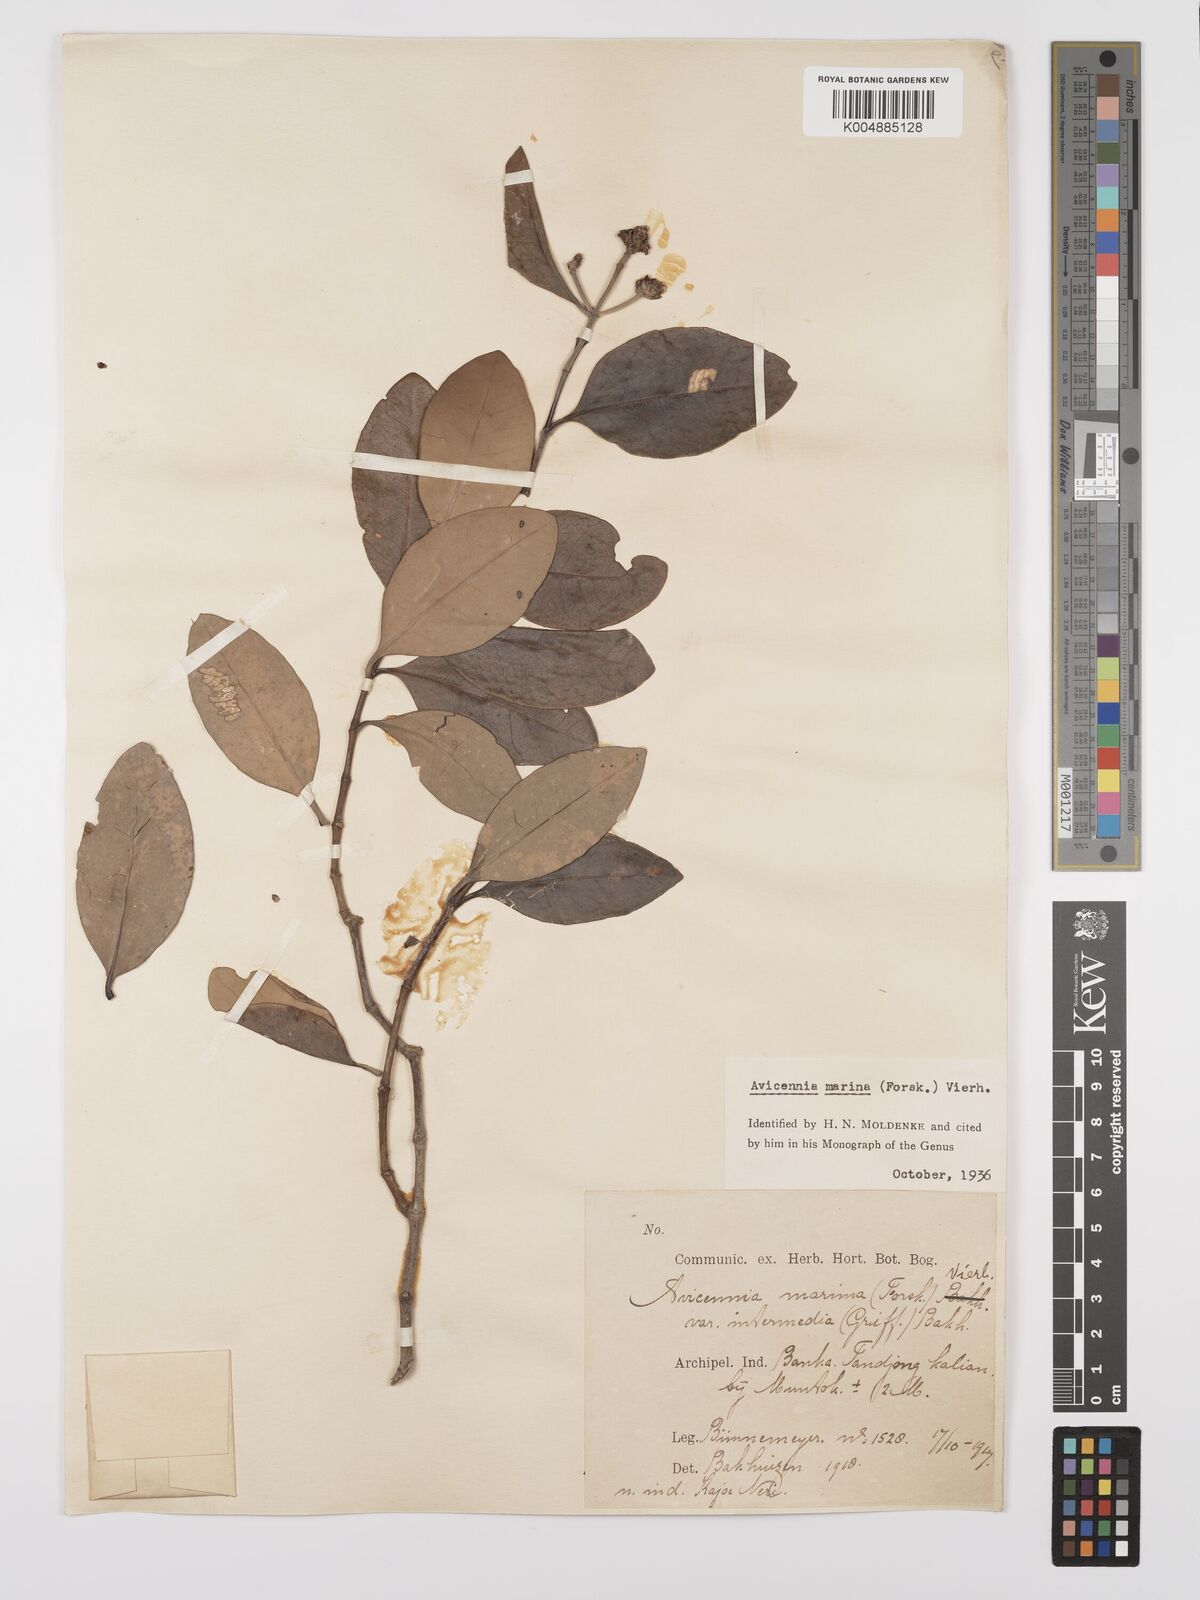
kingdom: Plantae
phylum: Tracheophyta
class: Magnoliopsida
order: Lamiales
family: Acanthaceae
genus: Avicennia
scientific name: Avicennia marina
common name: Gray mangrove
